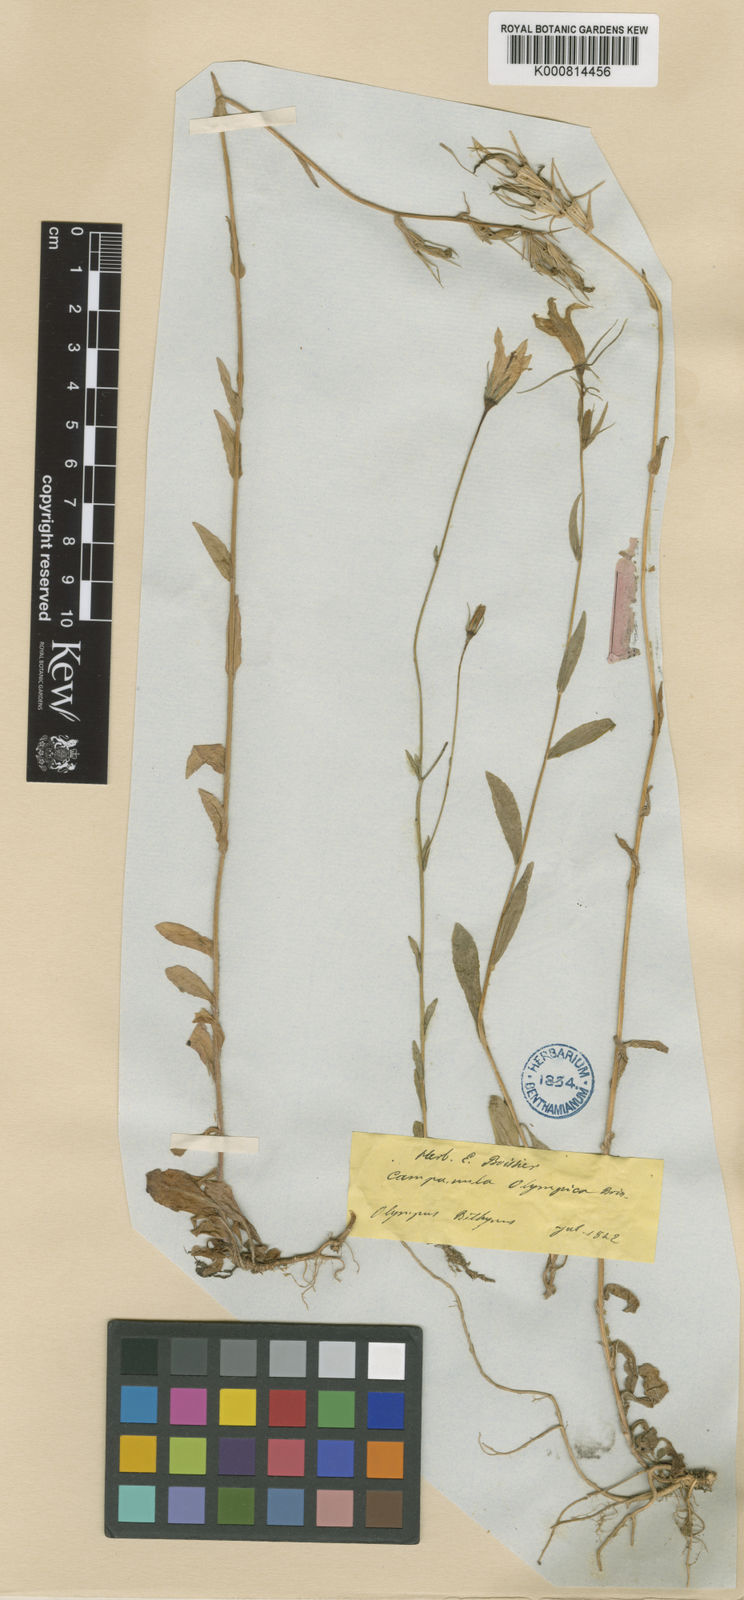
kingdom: Plantae
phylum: Tracheophyta
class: Magnoliopsida
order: Asterales
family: Campanulaceae
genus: Campanula
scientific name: Campanula olympica
